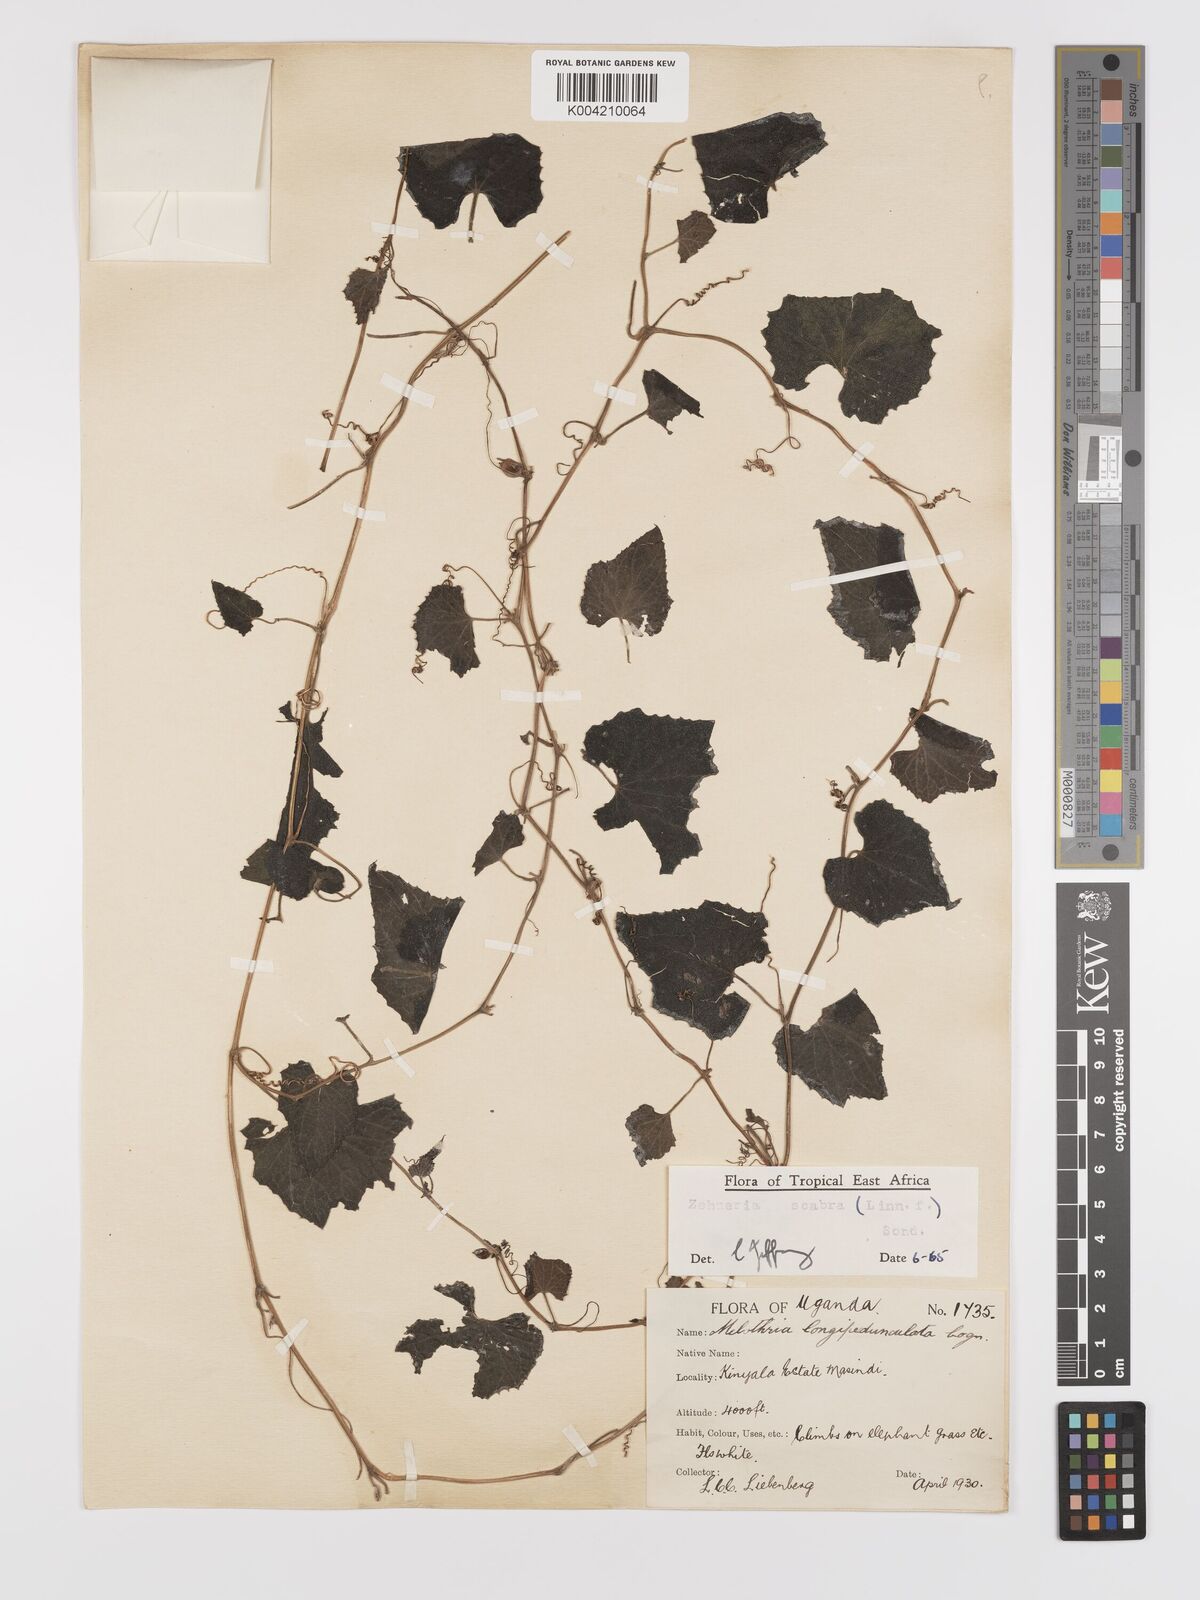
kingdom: Plantae
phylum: Tracheophyta
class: Magnoliopsida
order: Cucurbitales
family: Cucurbitaceae
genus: Zehneria
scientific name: Zehneria scabra
